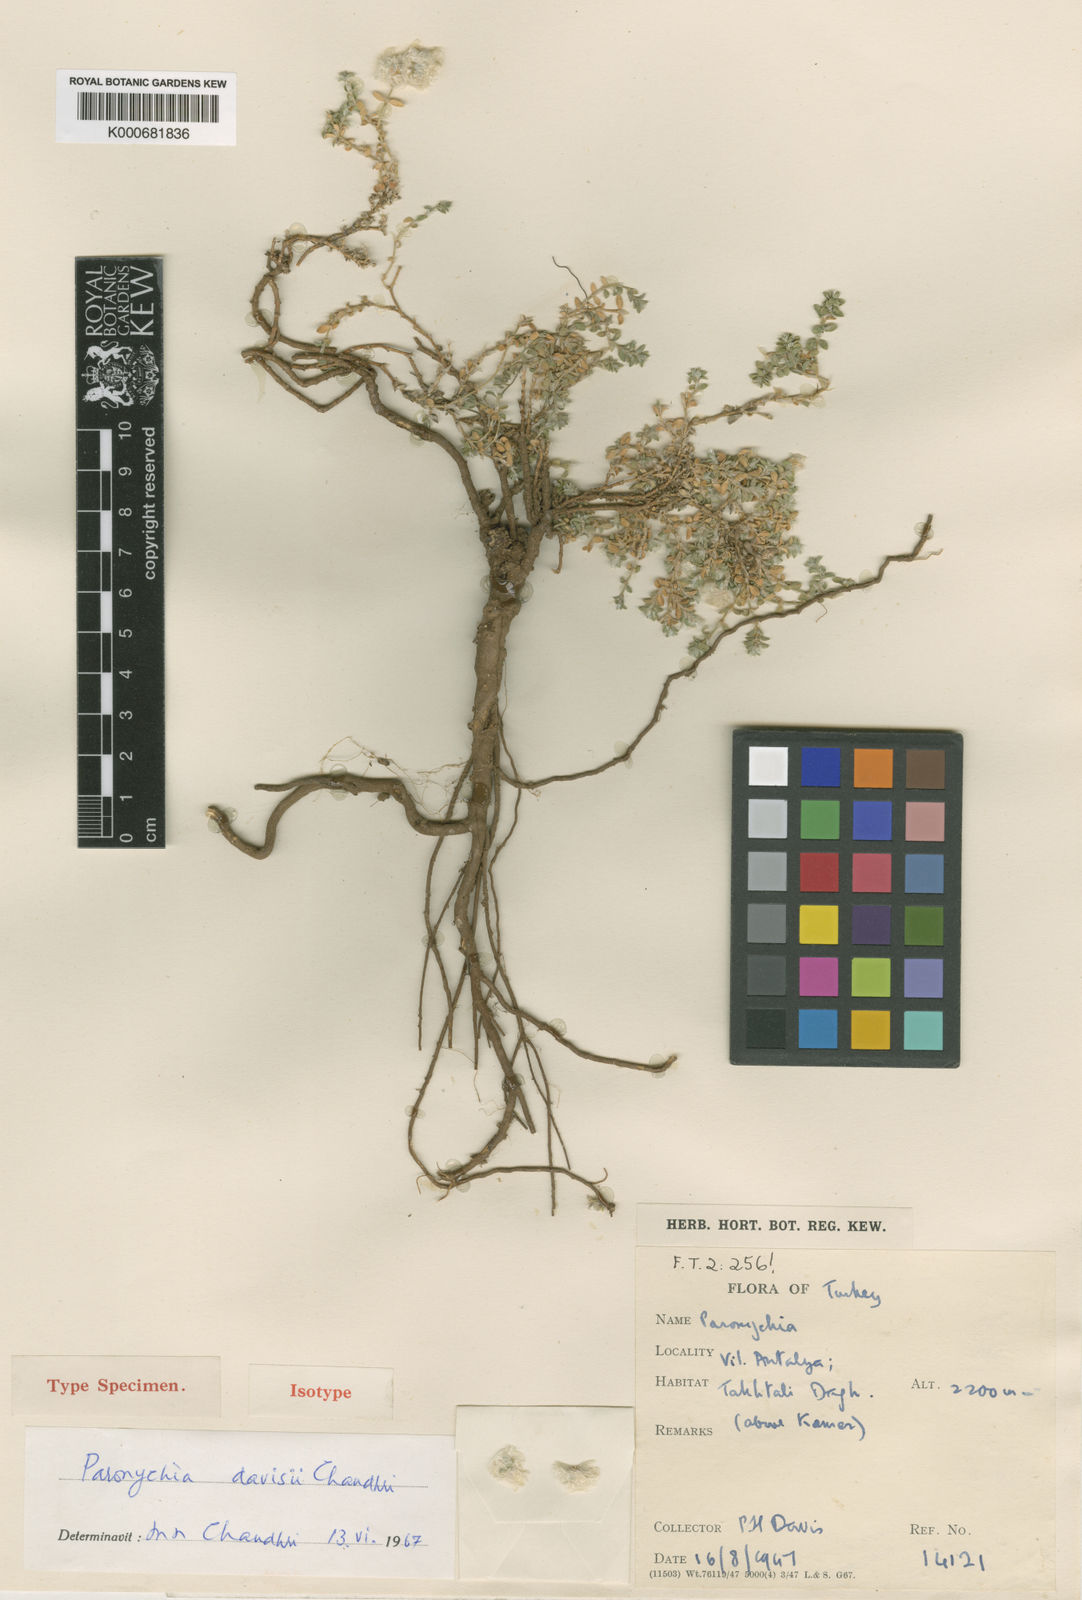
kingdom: Plantae
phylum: Tracheophyta
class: Magnoliopsida
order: Caryophyllales
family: Caryophyllaceae
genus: Paronychia
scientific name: Paronychia davisii
